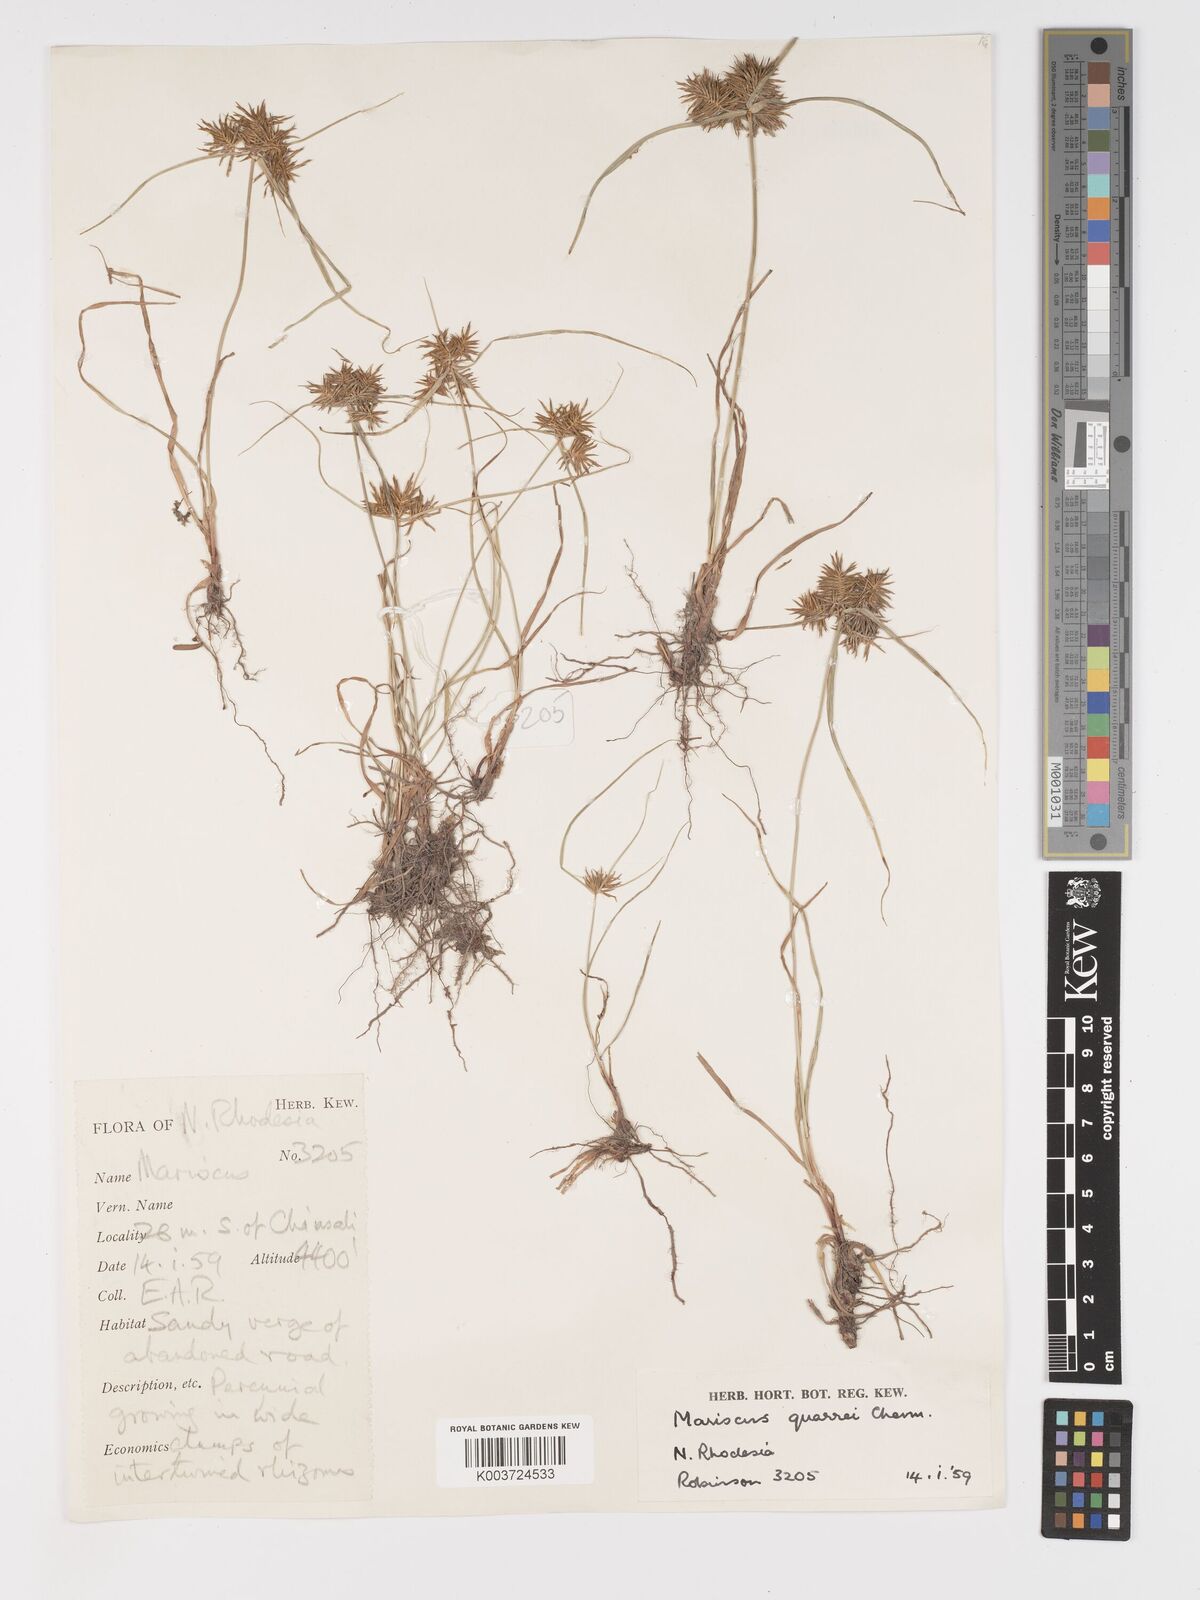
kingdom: Plantae
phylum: Tracheophyta
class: Liliopsida
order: Poales
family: Cyperaceae
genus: Cyperus
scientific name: Cyperus
